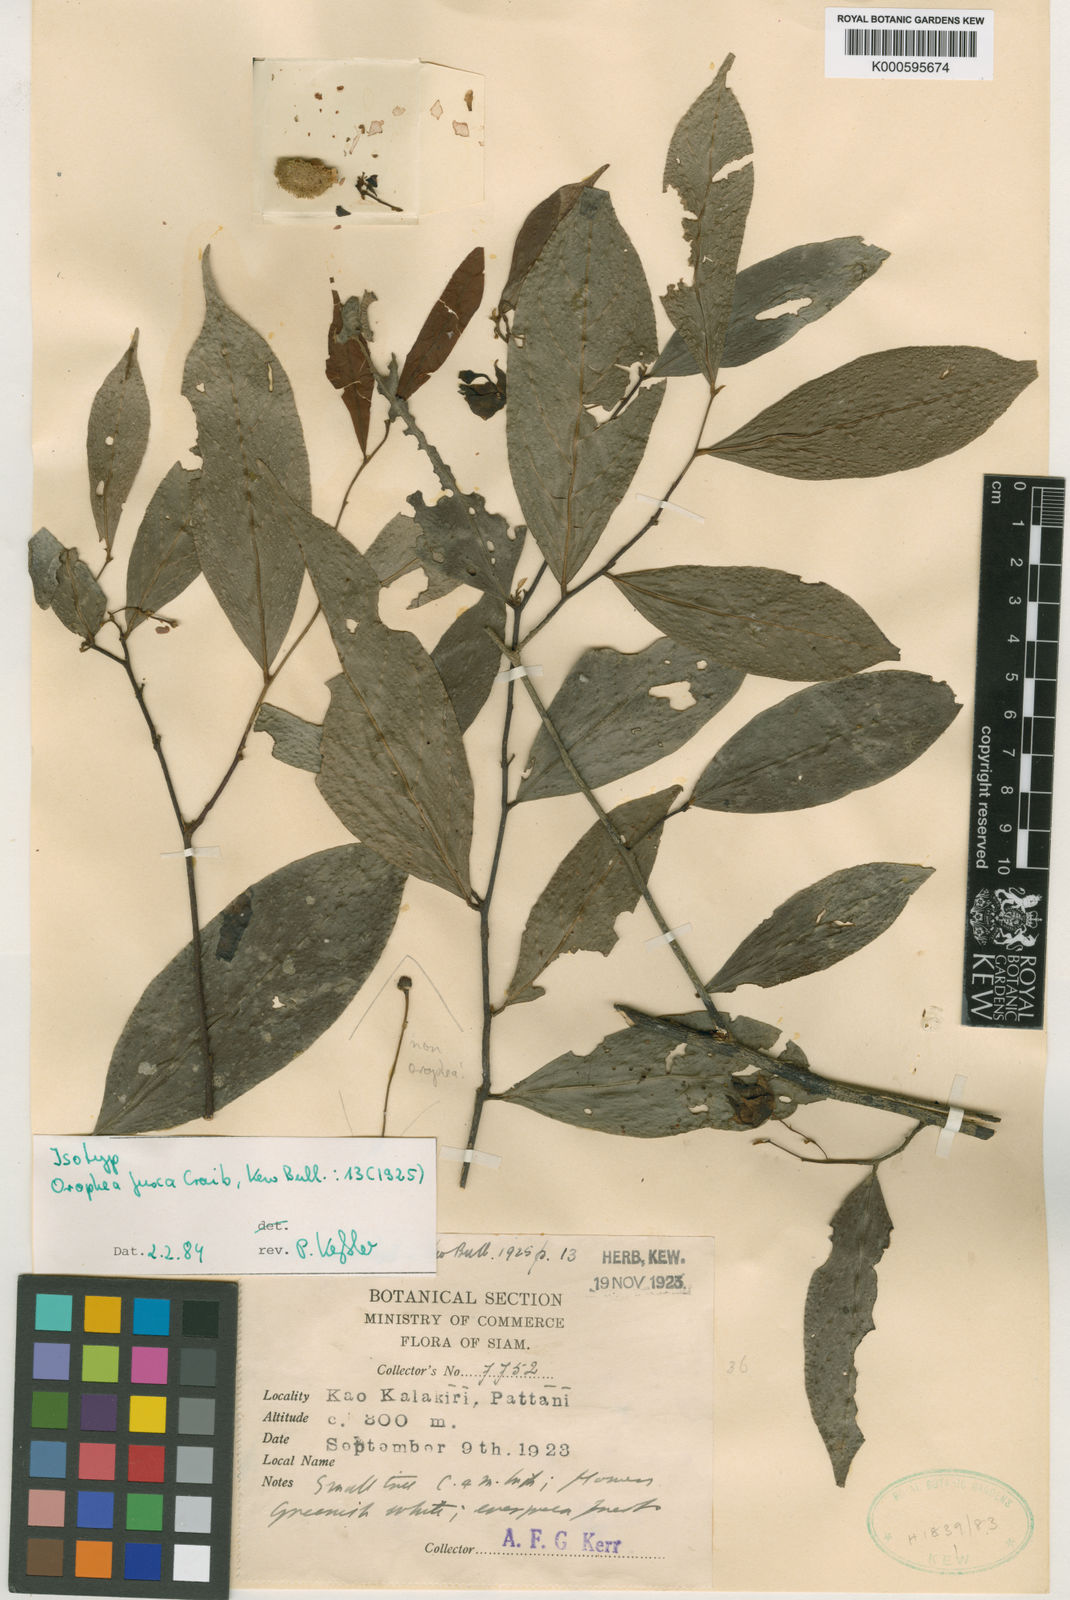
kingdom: Plantae
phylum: Tracheophyta
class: Magnoliopsida
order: Magnoliales
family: Annonaceae
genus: Orophea
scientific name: Orophea fusca
